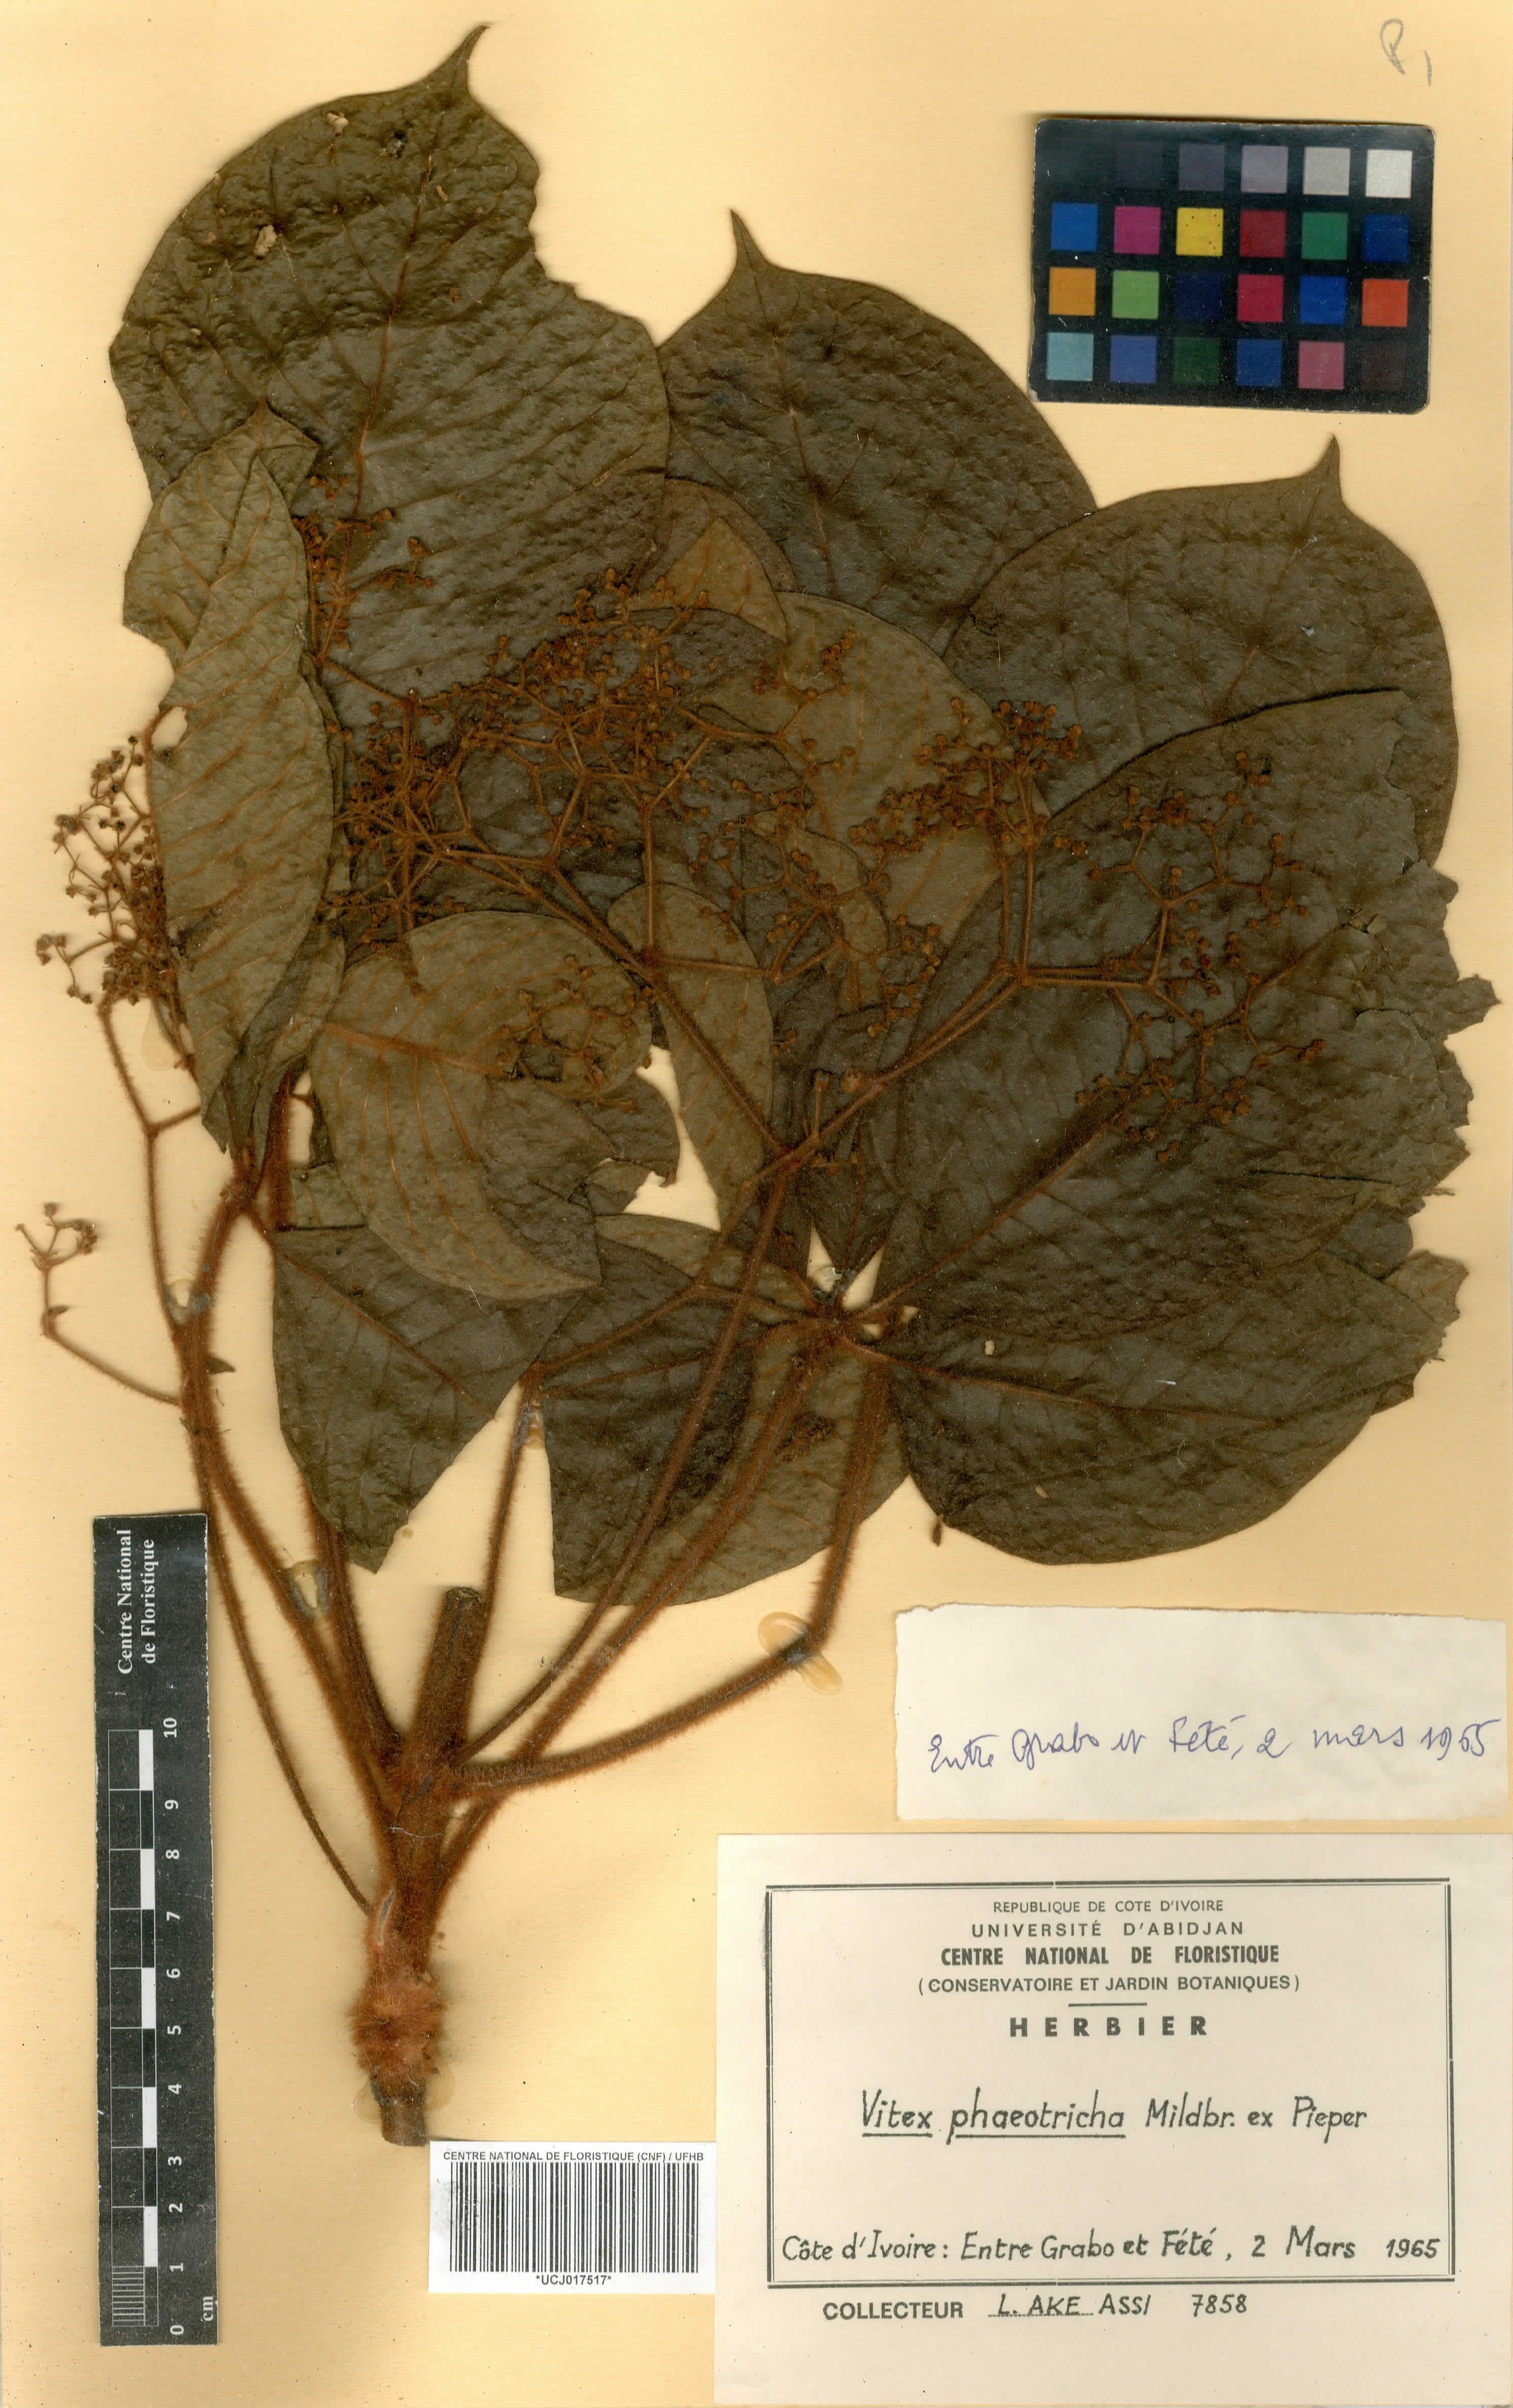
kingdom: Plantae
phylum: Tracheophyta
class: Magnoliopsida
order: Lamiales
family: Lamiaceae
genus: Vitex
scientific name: Vitex congolensis
